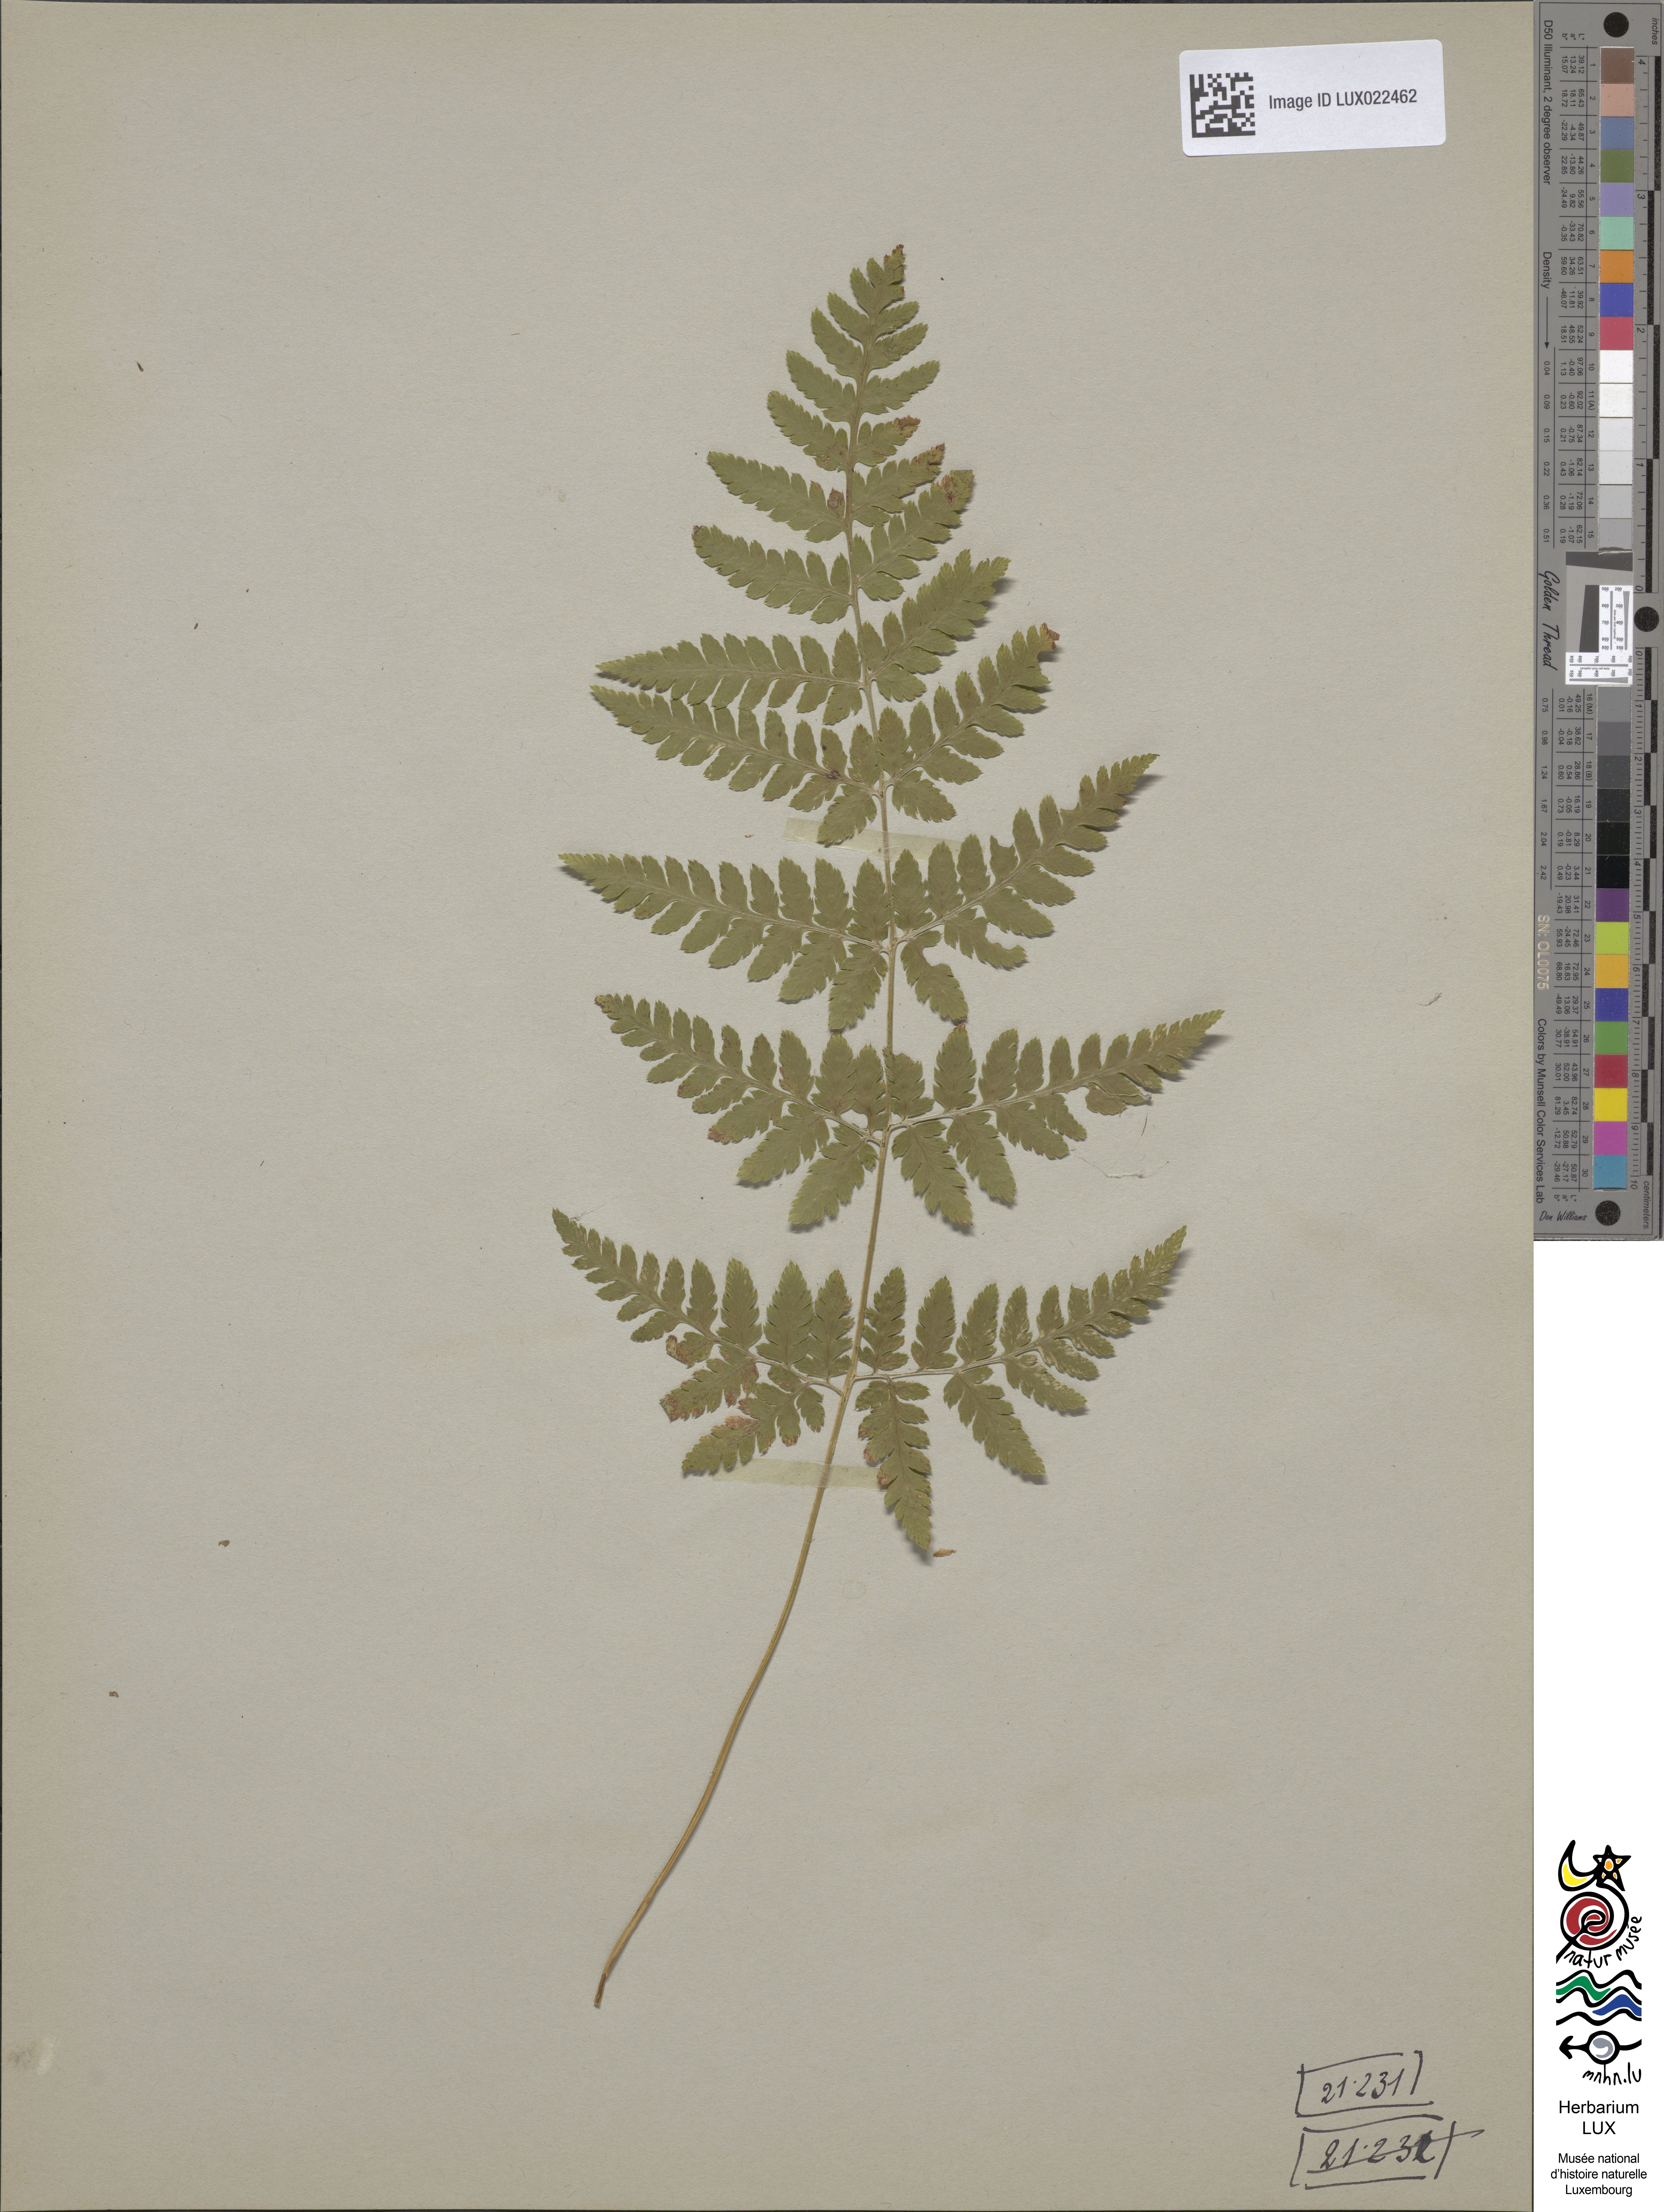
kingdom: Plantae
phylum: Tracheophyta
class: Polypodiopsida
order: Polypodiales
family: Dryopteridaceae
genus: Dryopteris
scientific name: Dryopteris carthusiana
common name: Narrow buckler-fern
